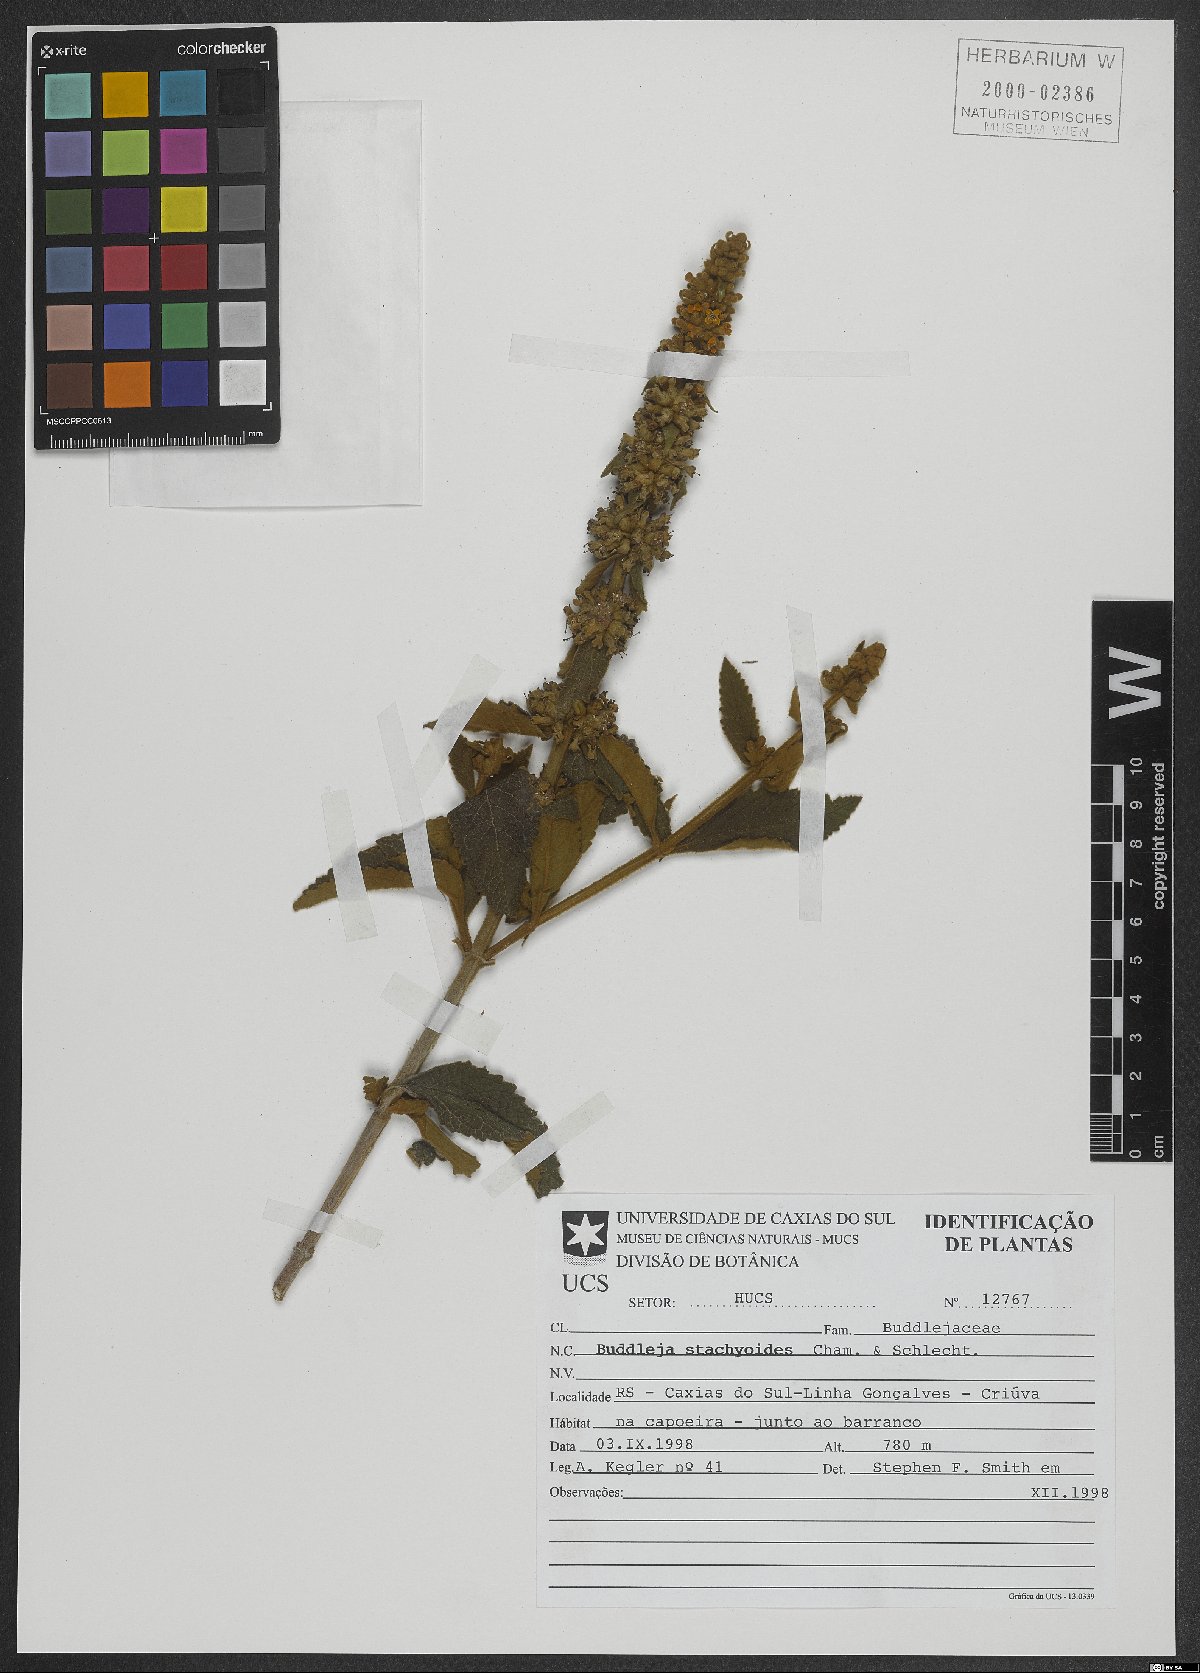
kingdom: Plantae
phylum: Tracheophyta
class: Magnoliopsida
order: Lamiales
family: Scrophulariaceae
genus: Buddleja
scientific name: Buddleja stachyoides
